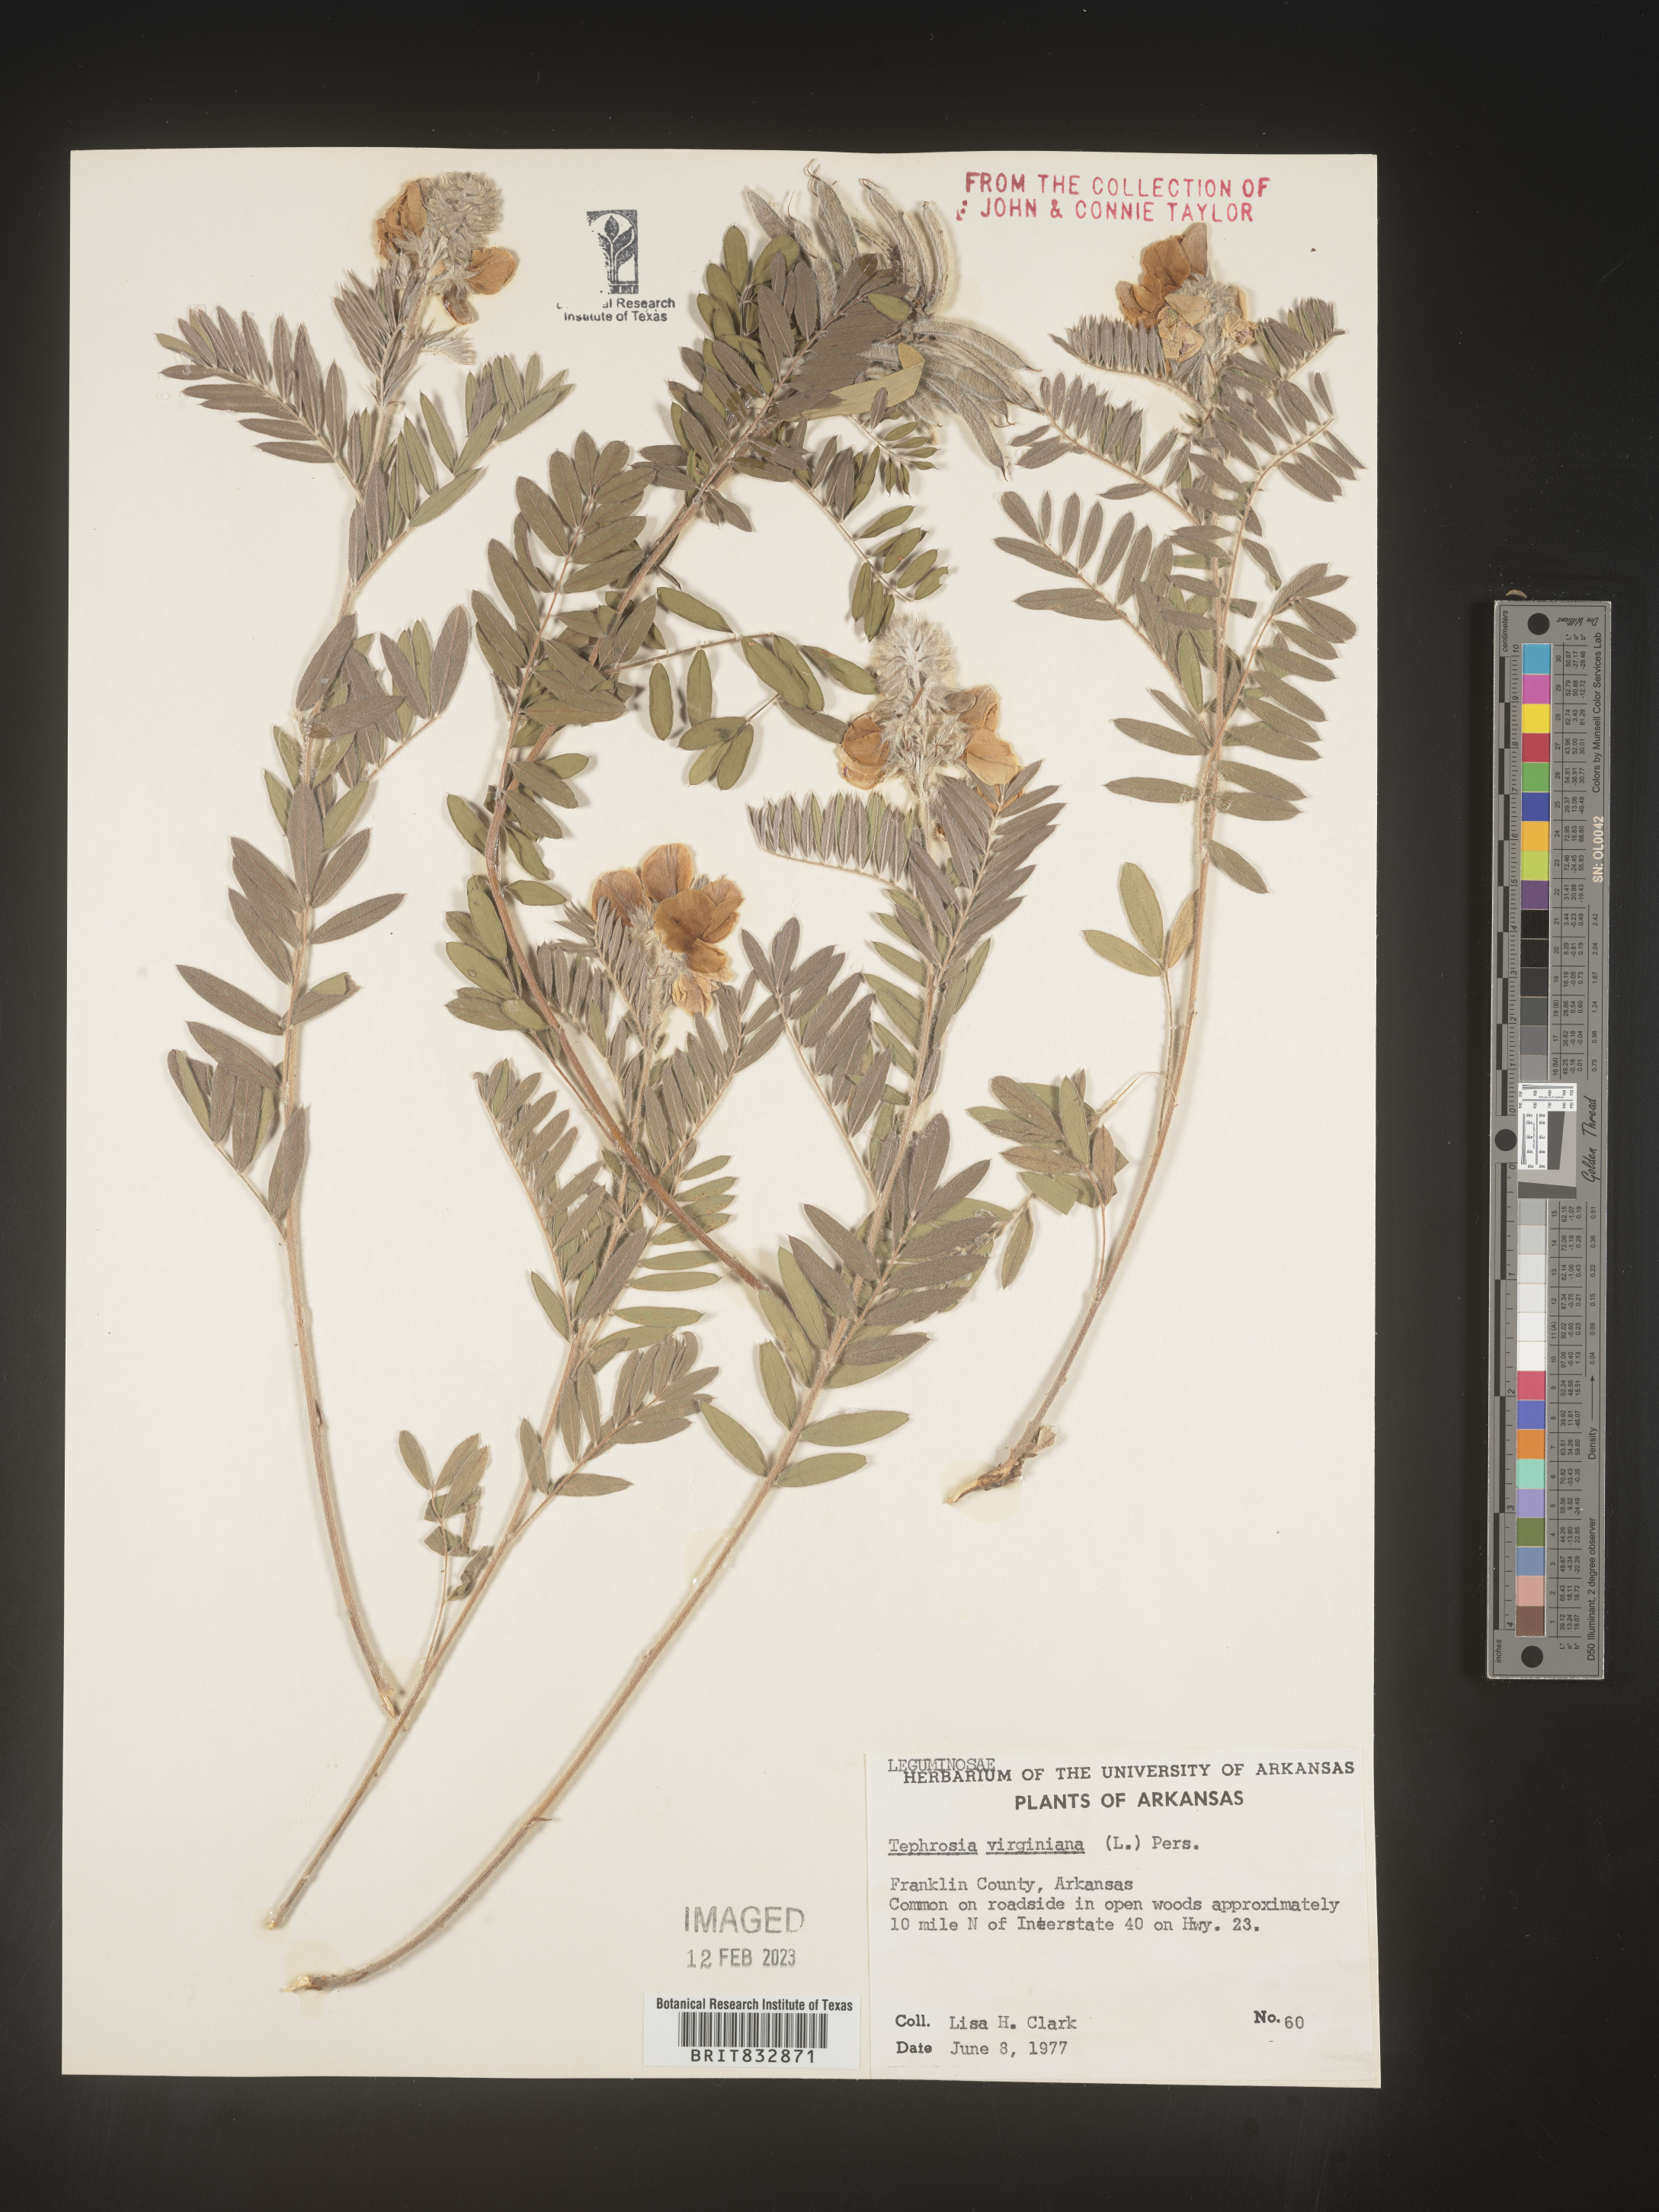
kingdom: Plantae
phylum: Tracheophyta
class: Magnoliopsida
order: Fabales
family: Fabaceae
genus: Tephrosia
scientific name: Tephrosia virginiana
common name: Rabbit-pea
